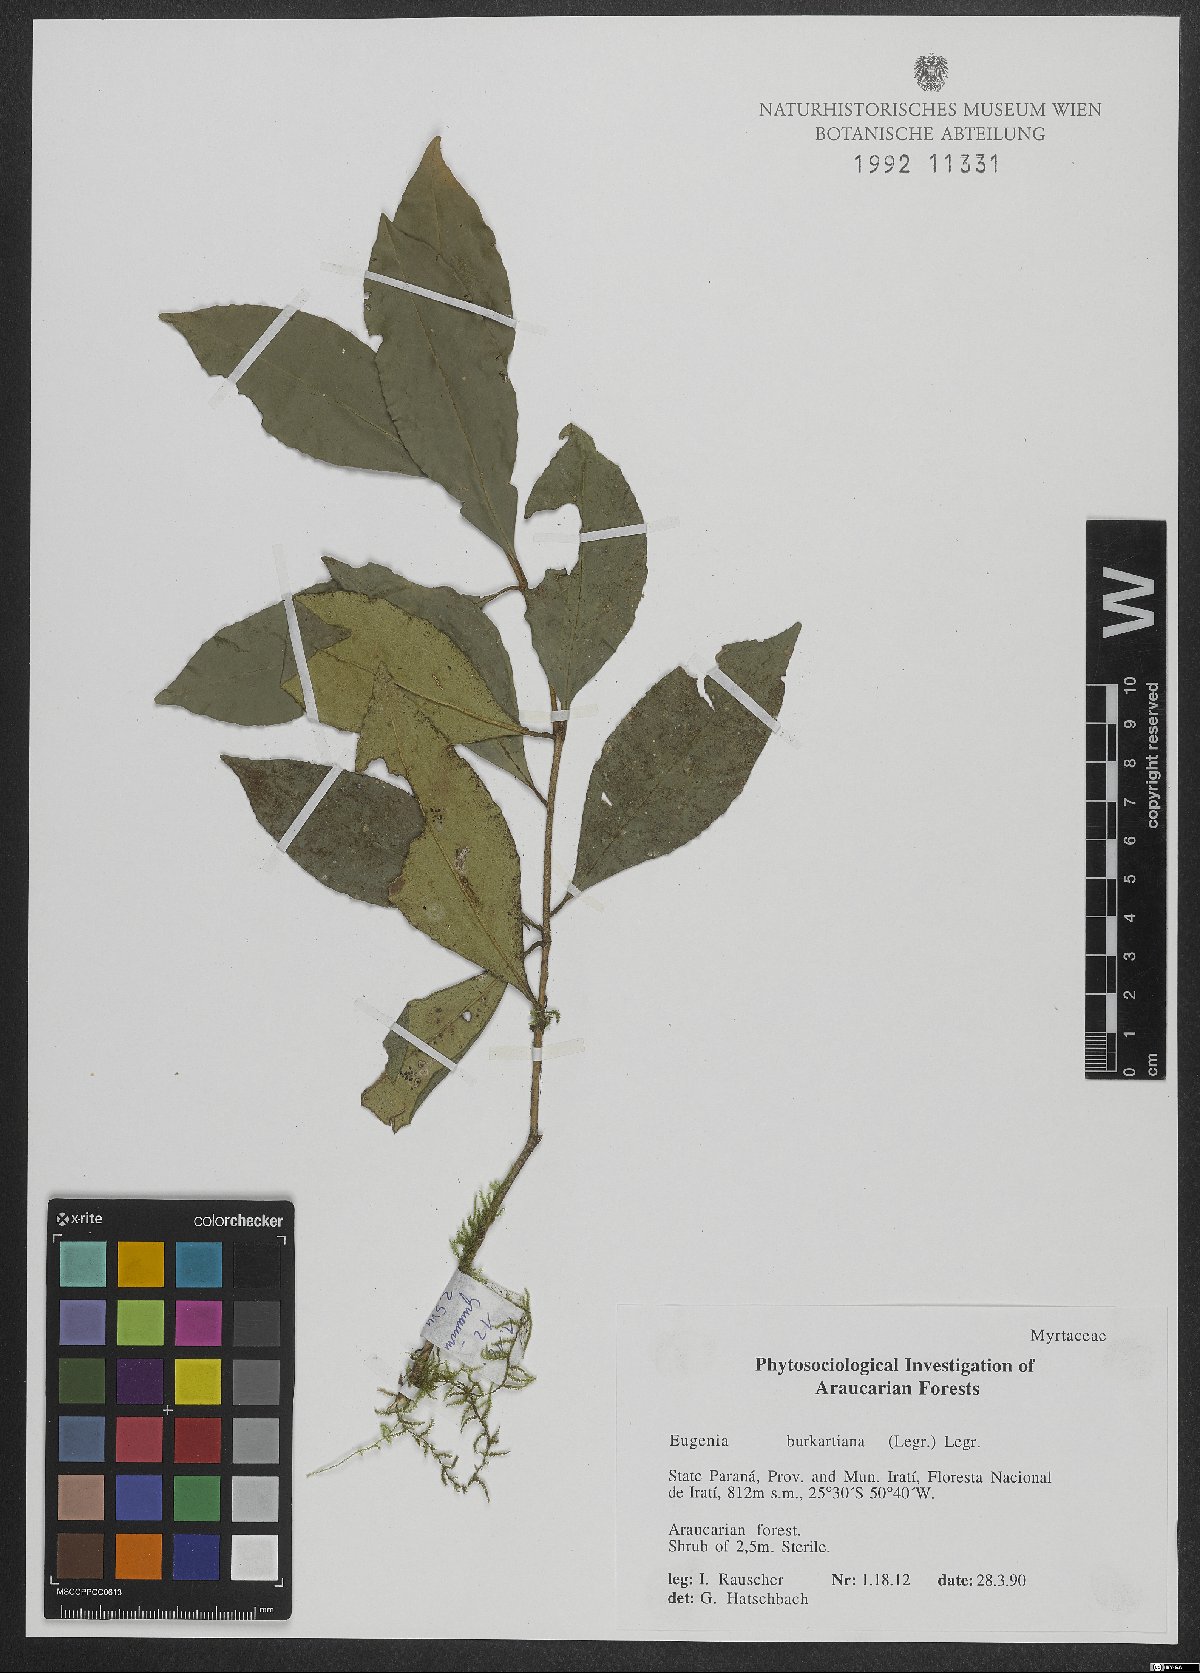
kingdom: Plantae
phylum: Tracheophyta
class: Magnoliopsida
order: Myrtales
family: Myrtaceae
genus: Eugenia
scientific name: Eugenia burkartiana
